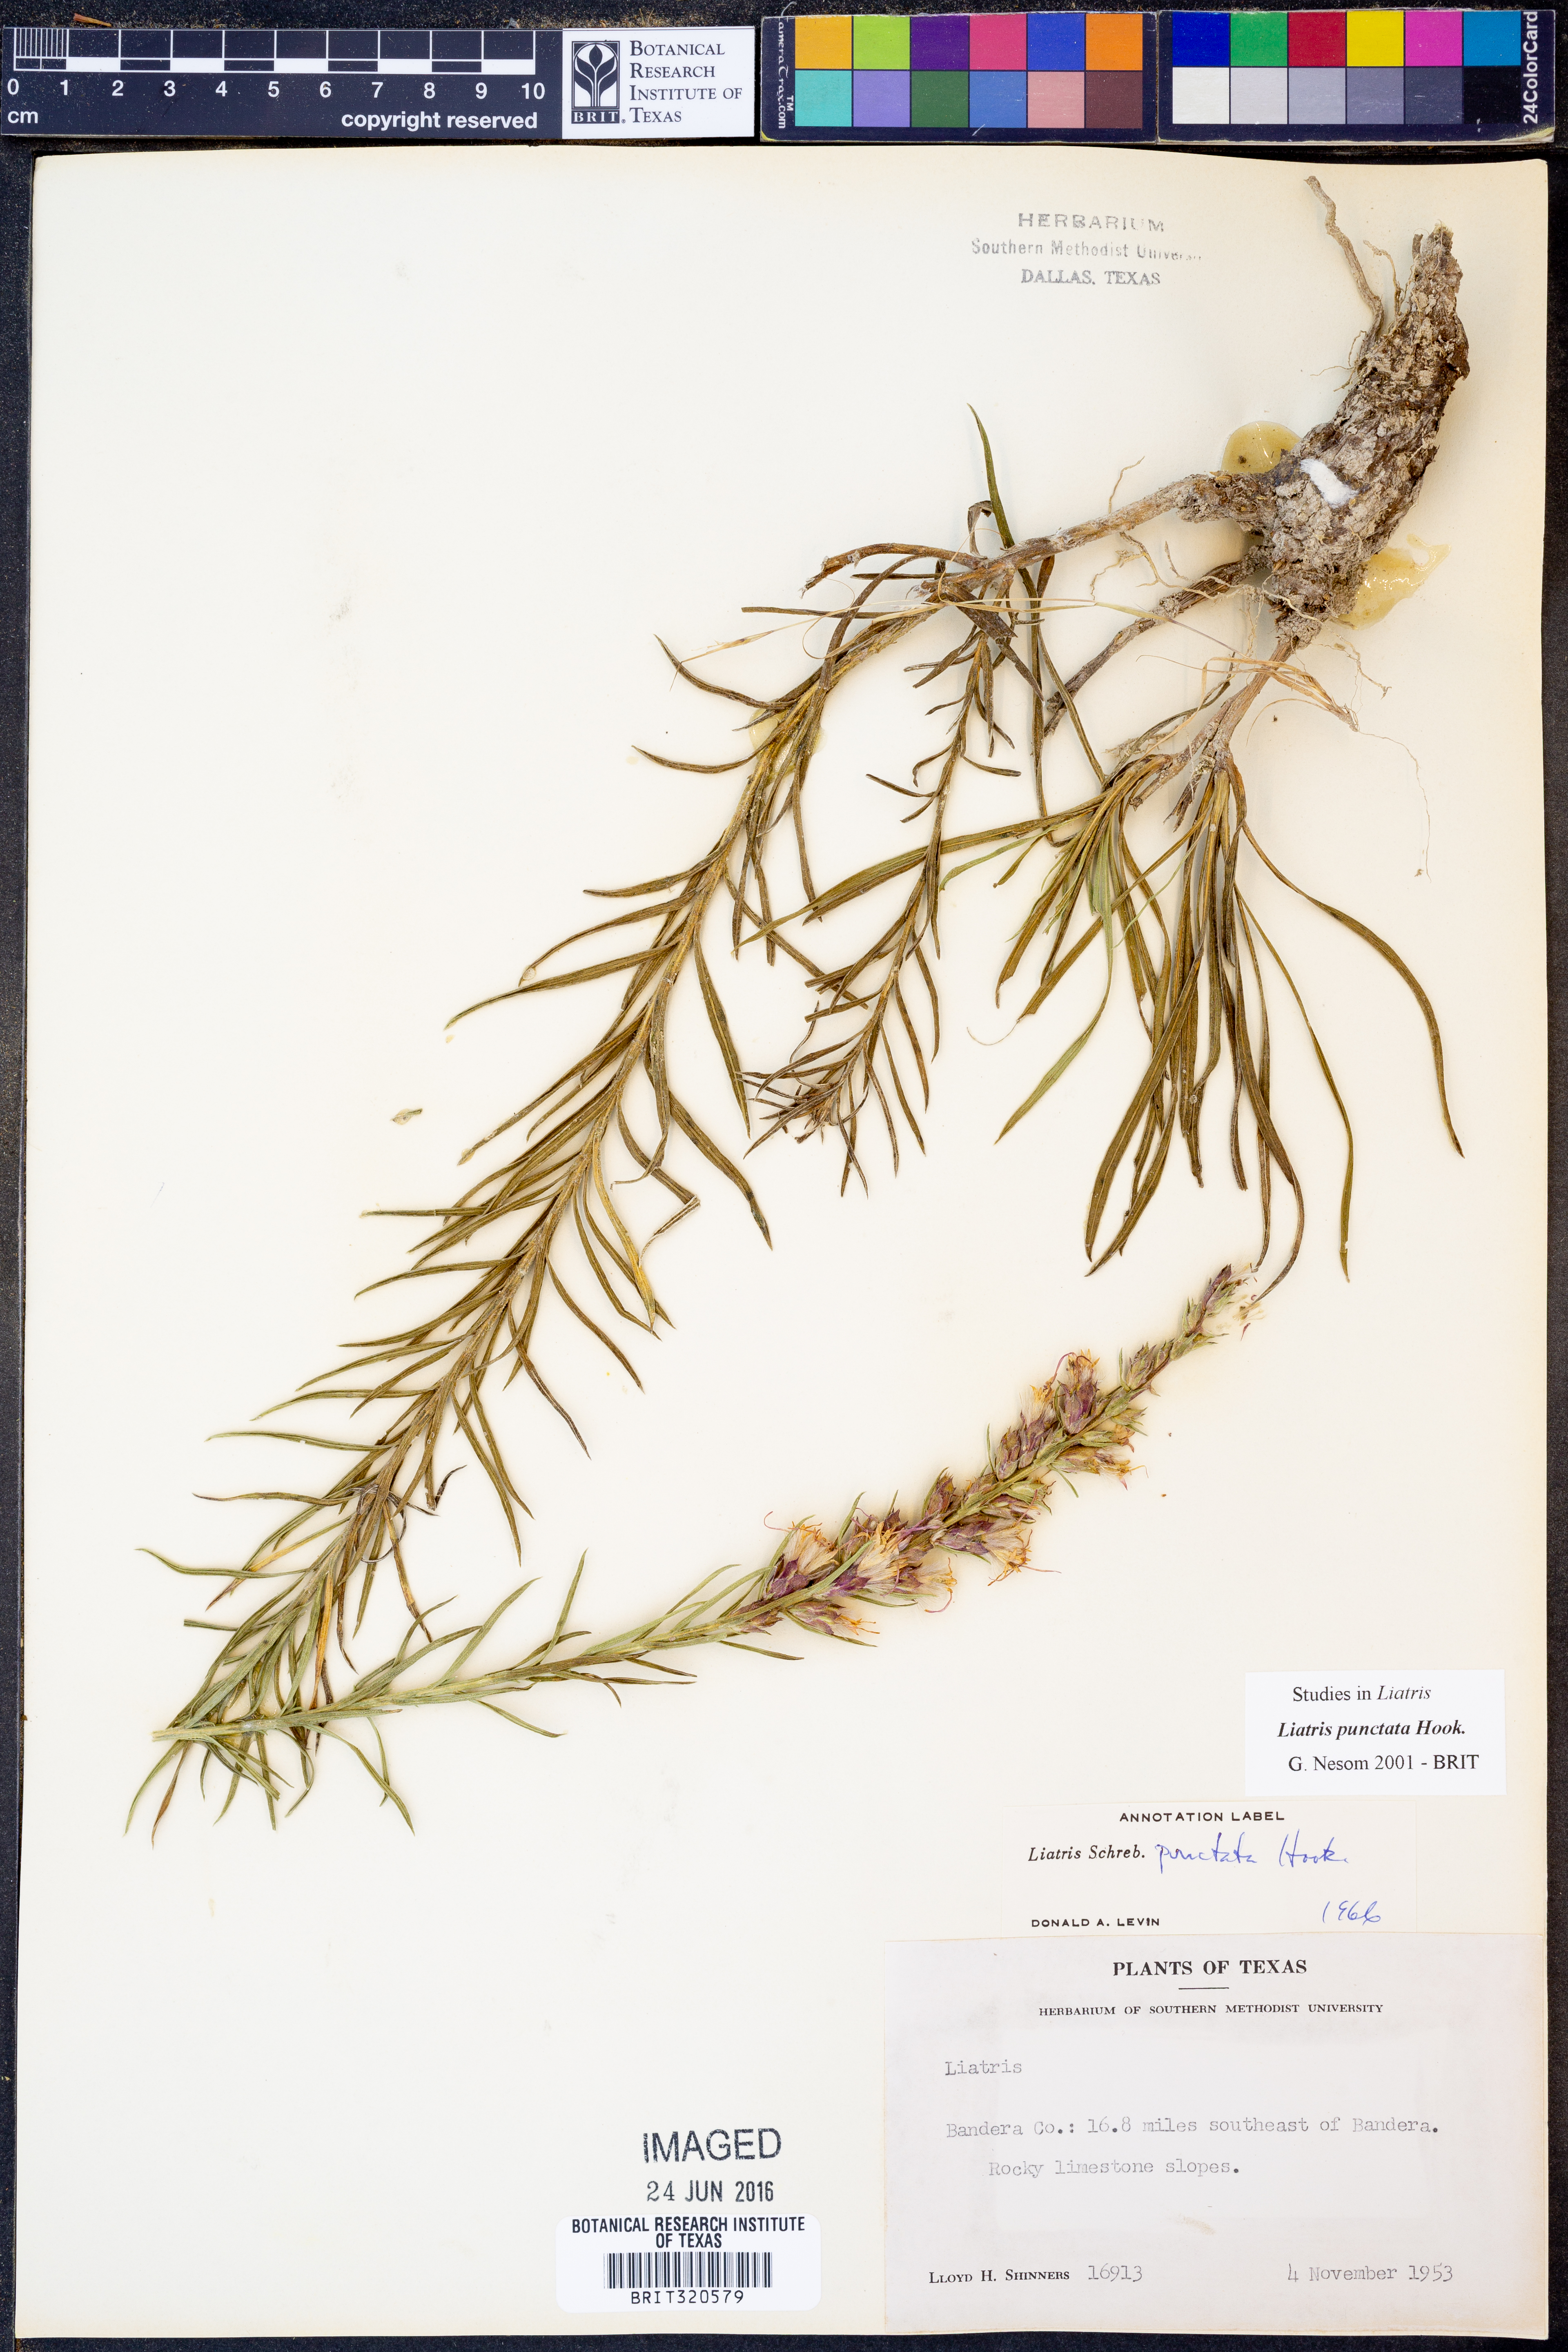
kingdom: Plantae
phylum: Tracheophyta
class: Magnoliopsida
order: Asterales
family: Asteraceae
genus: Liatris
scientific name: Liatris punctata
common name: Dotted gayfeather
